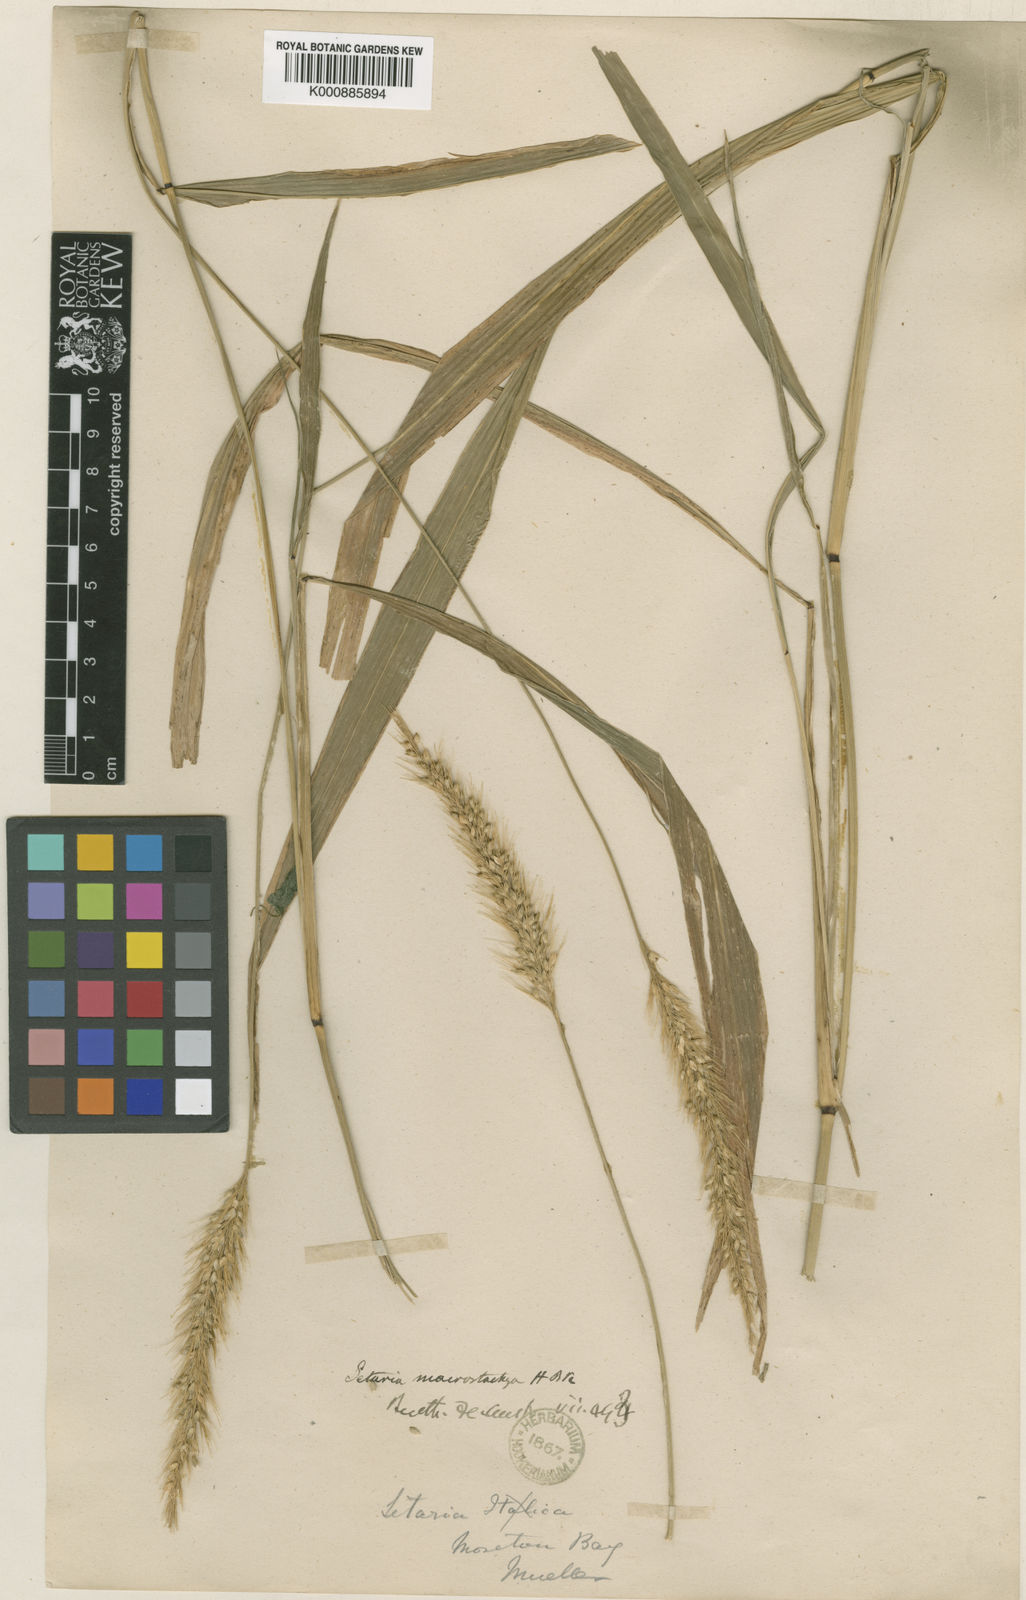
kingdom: Plantae
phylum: Tracheophyta
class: Liliopsida
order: Poales
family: Poaceae
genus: Setaria
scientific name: Setaria australiensis
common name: Scrub pigeon grass
